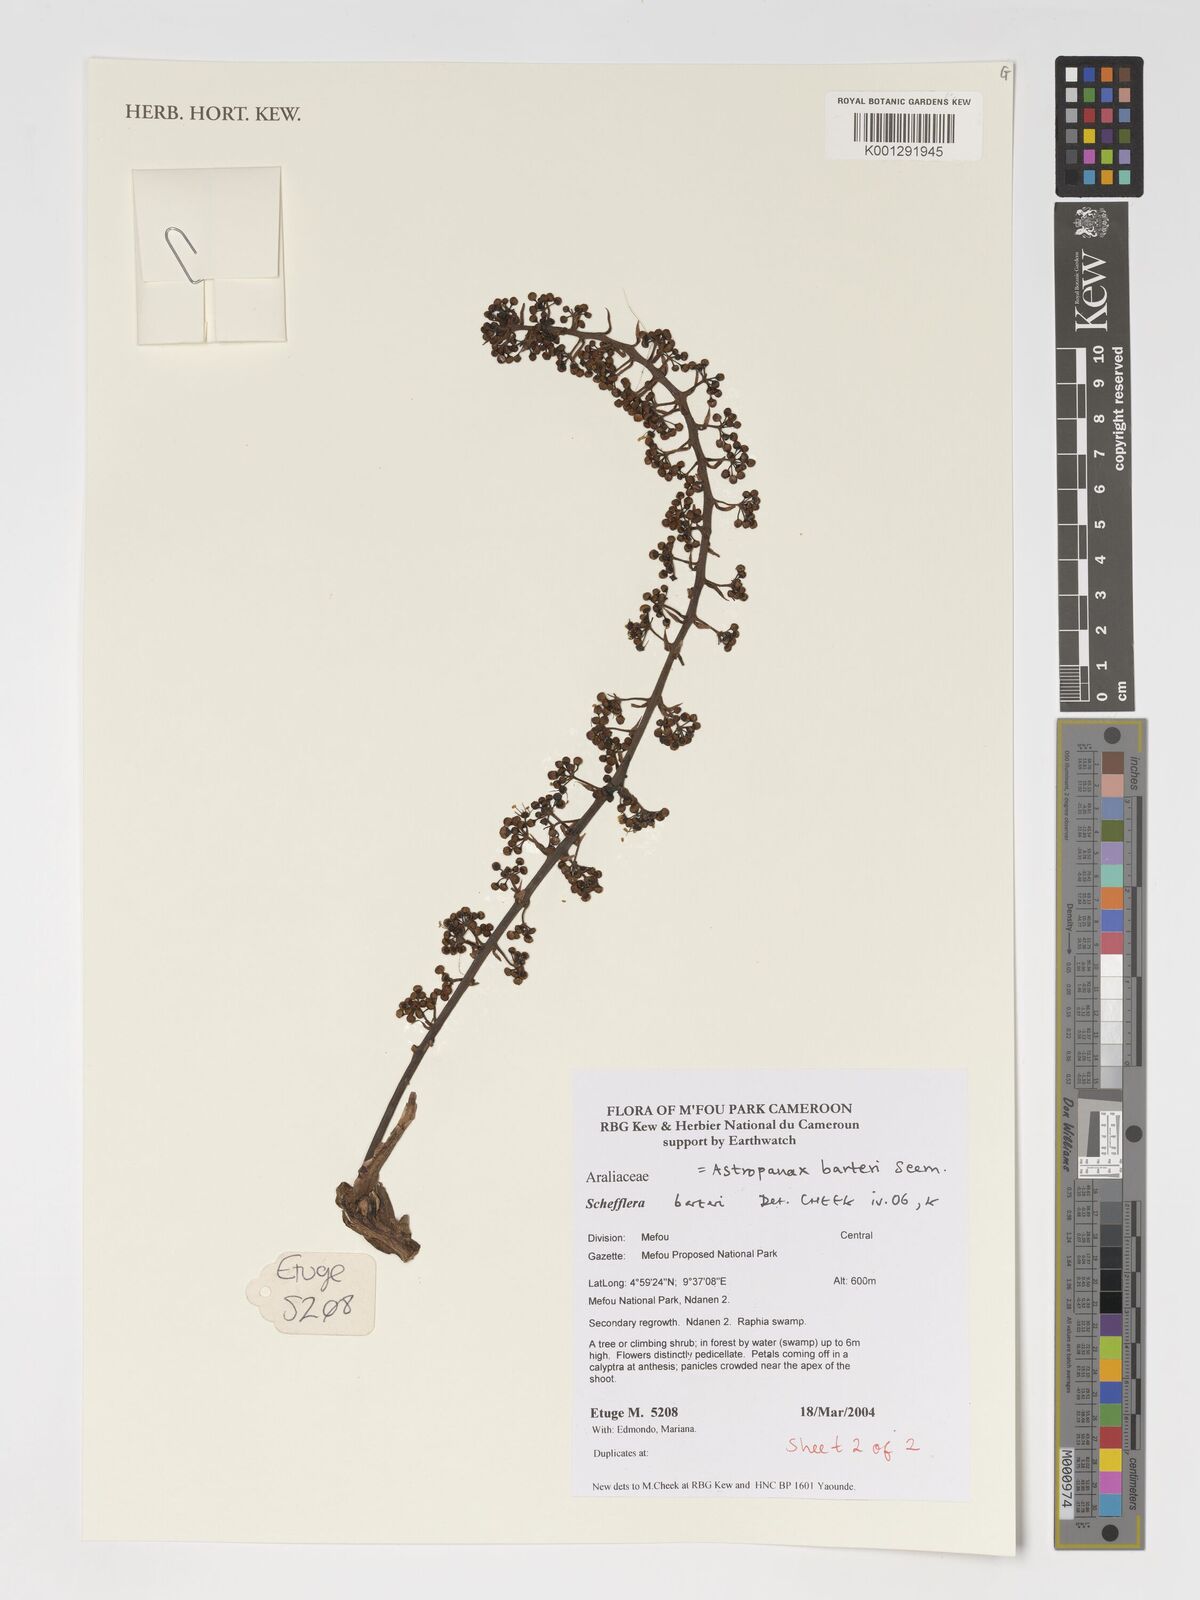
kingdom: Plantae
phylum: Tracheophyta
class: Magnoliopsida
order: Apiales
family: Araliaceae
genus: Astropanax
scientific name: Astropanax barteri
